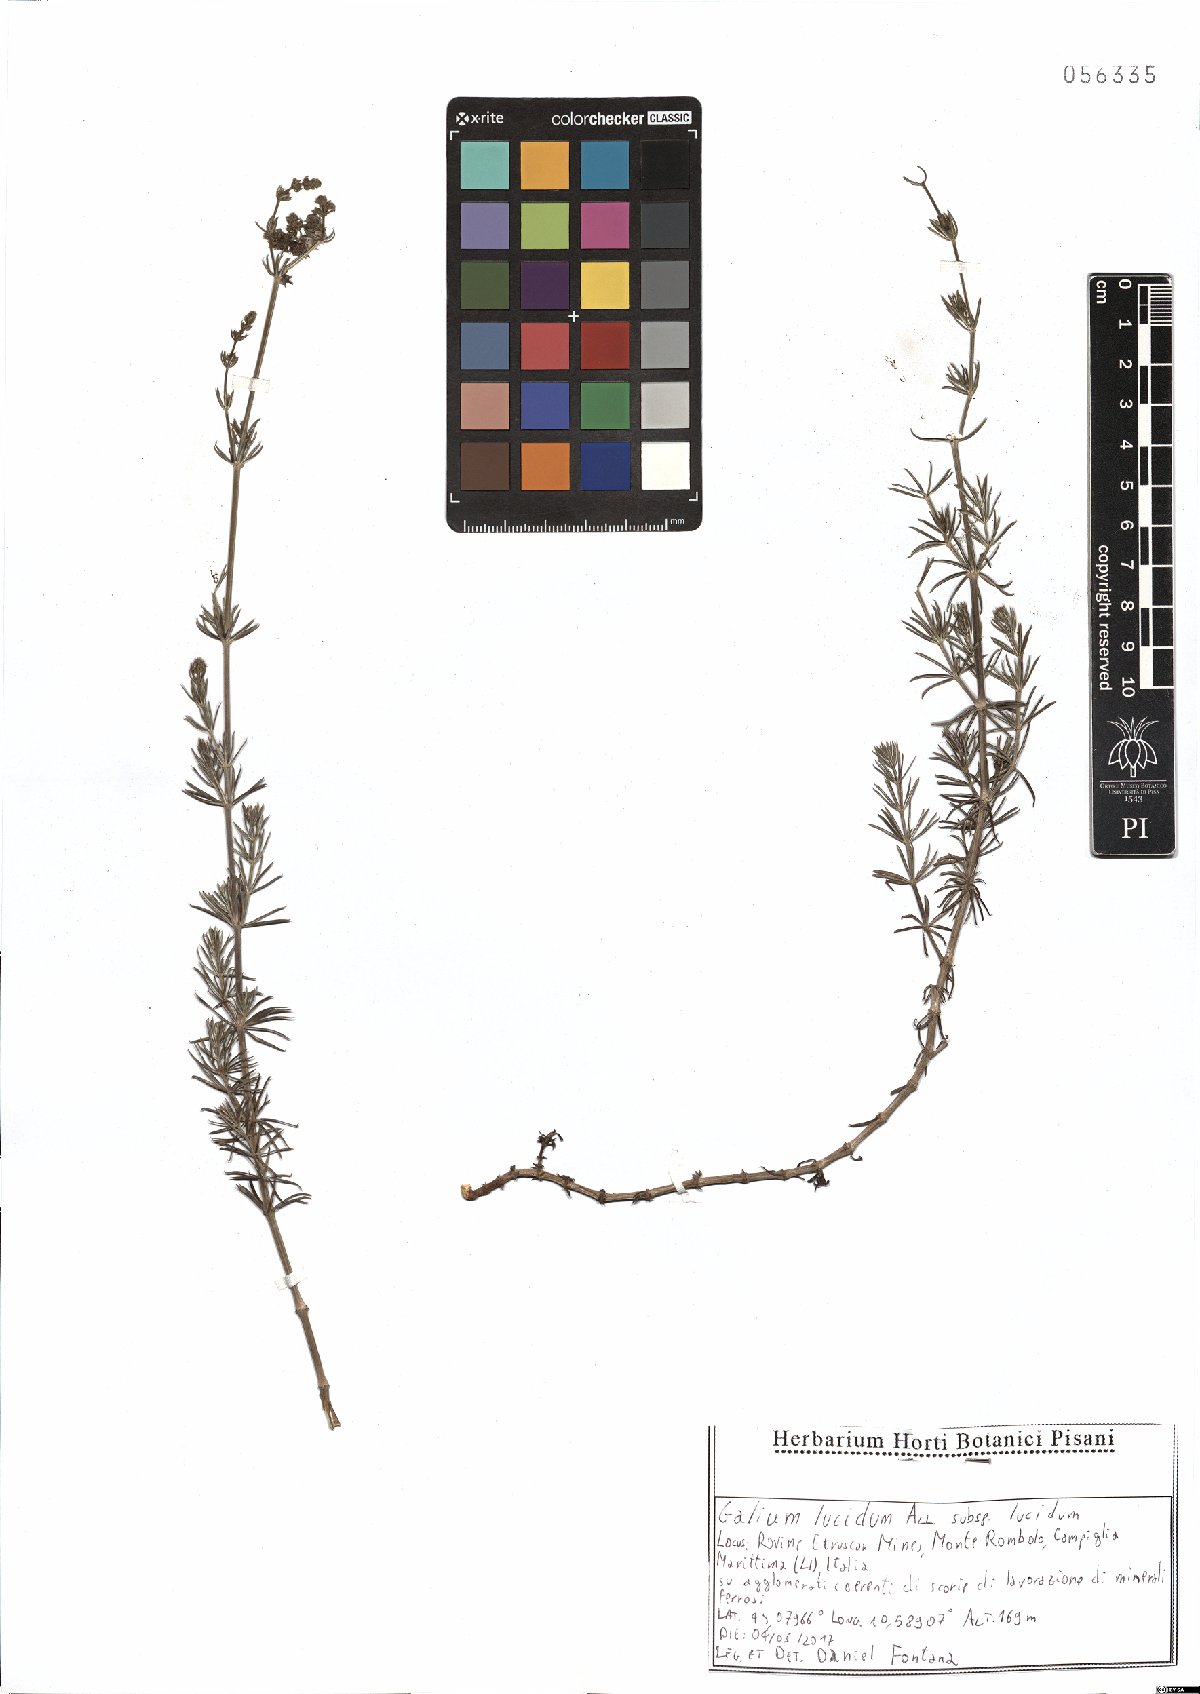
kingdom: Plantae
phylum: Tracheophyta
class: Magnoliopsida
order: Gentianales
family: Rubiaceae
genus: Galium
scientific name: Galium lucidum
